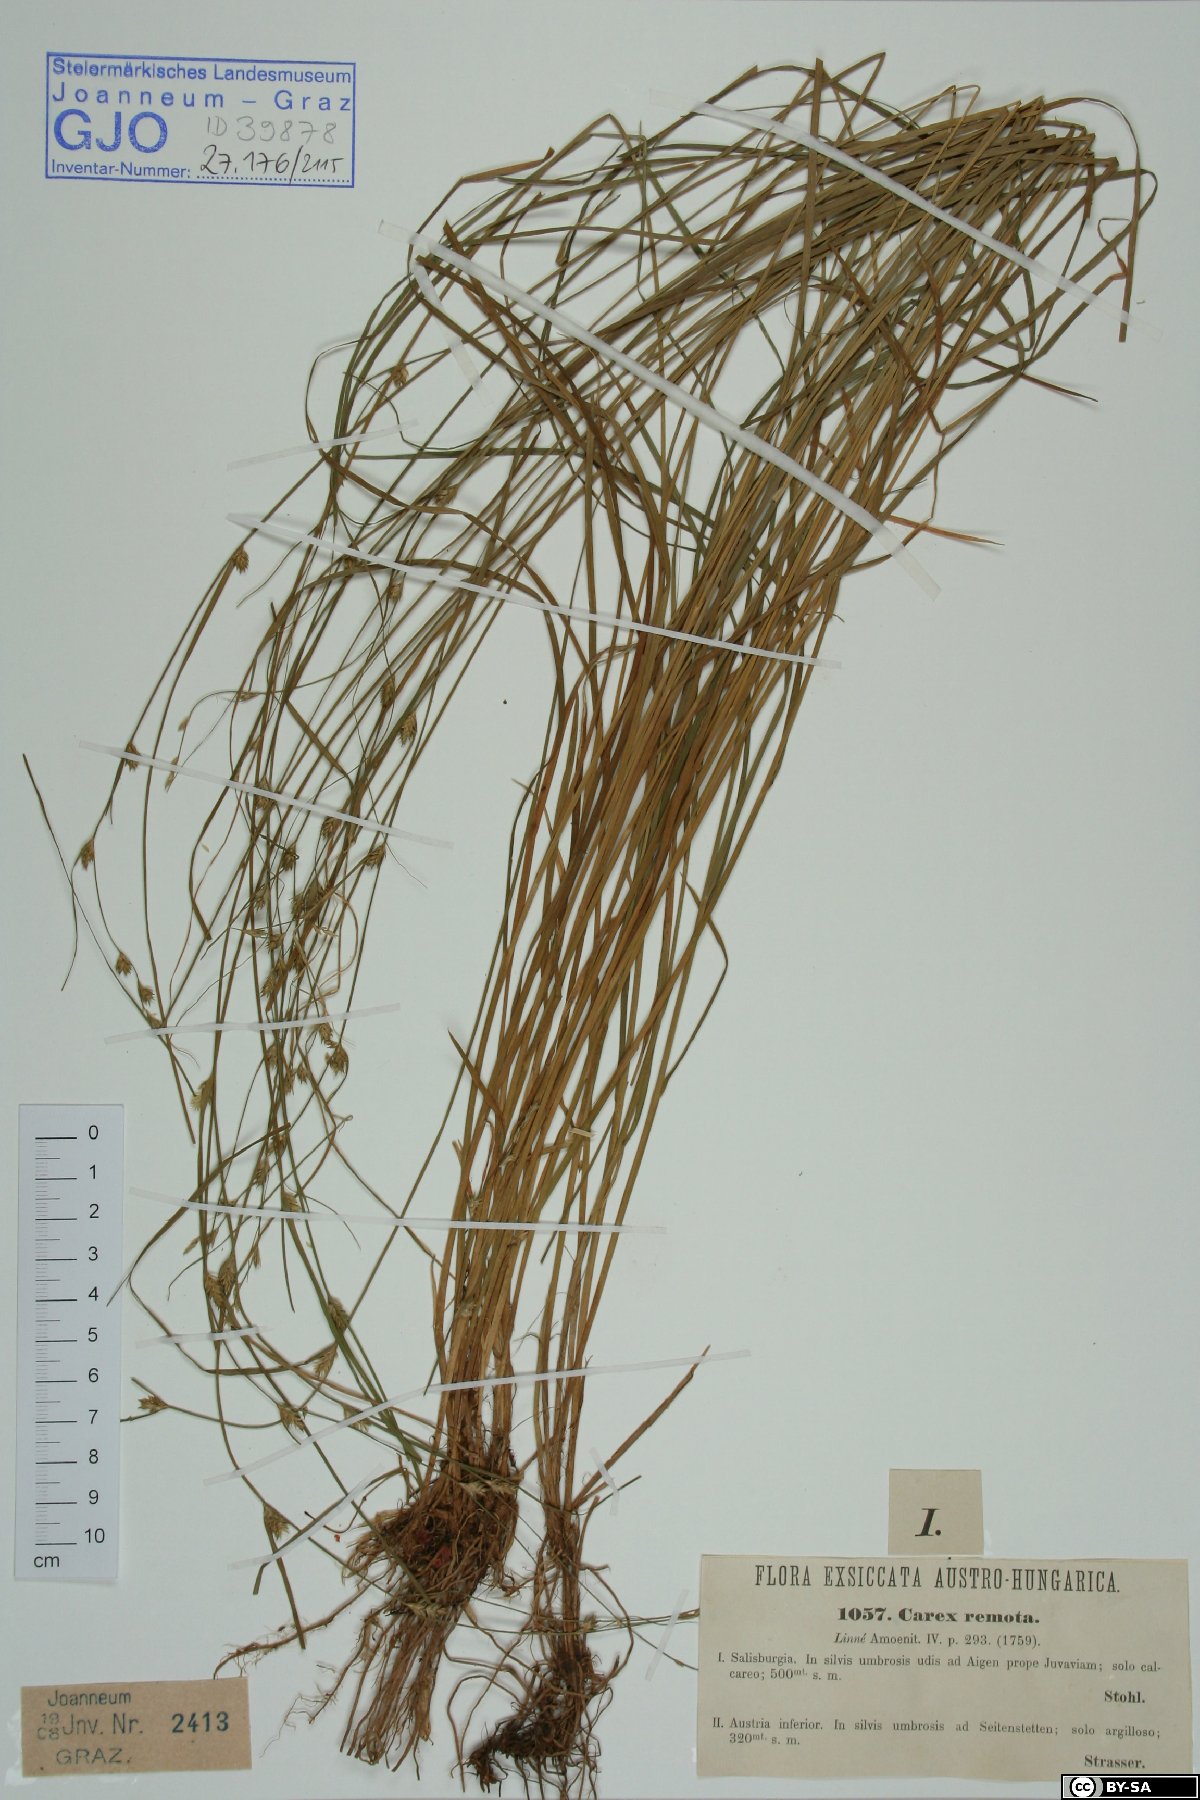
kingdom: Plantae
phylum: Tracheophyta
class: Liliopsida
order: Poales
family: Cyperaceae
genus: Carex
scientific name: Carex remota
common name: Remote sedge
